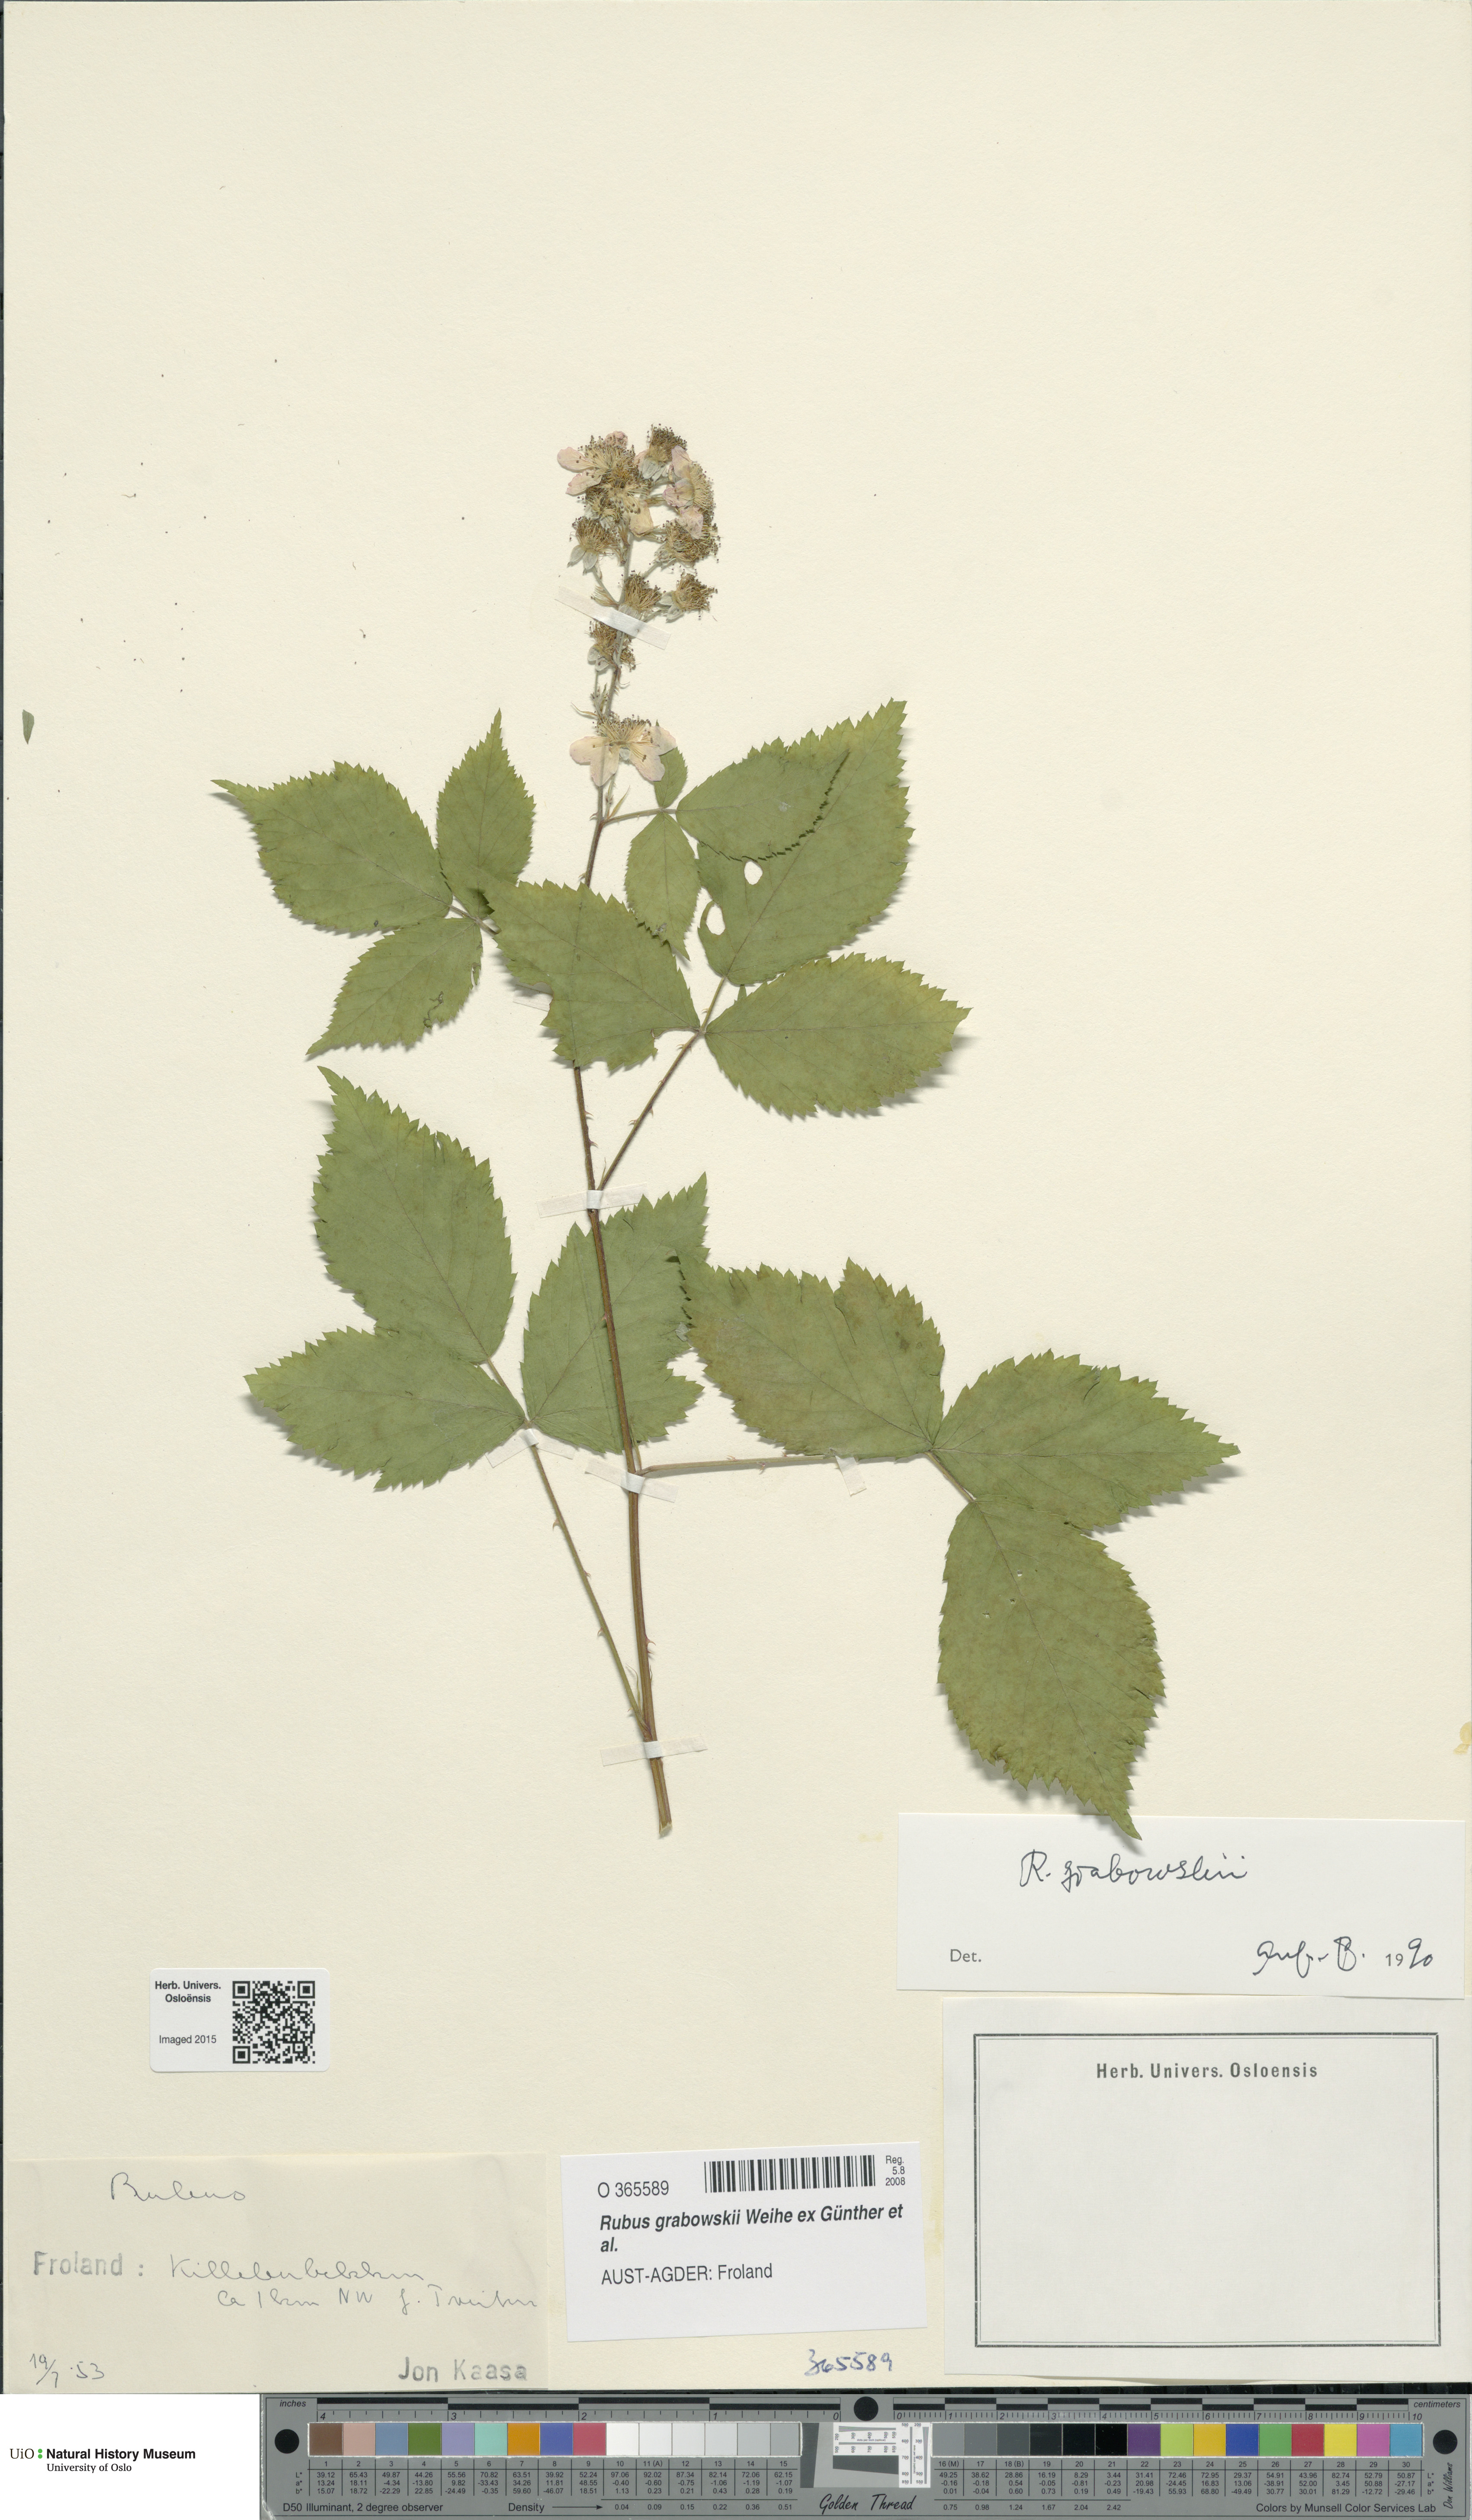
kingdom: Plantae
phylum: Tracheophyta
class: Magnoliopsida
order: Rosales
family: Rosaceae
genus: Rubus
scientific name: Rubus grabowskii
